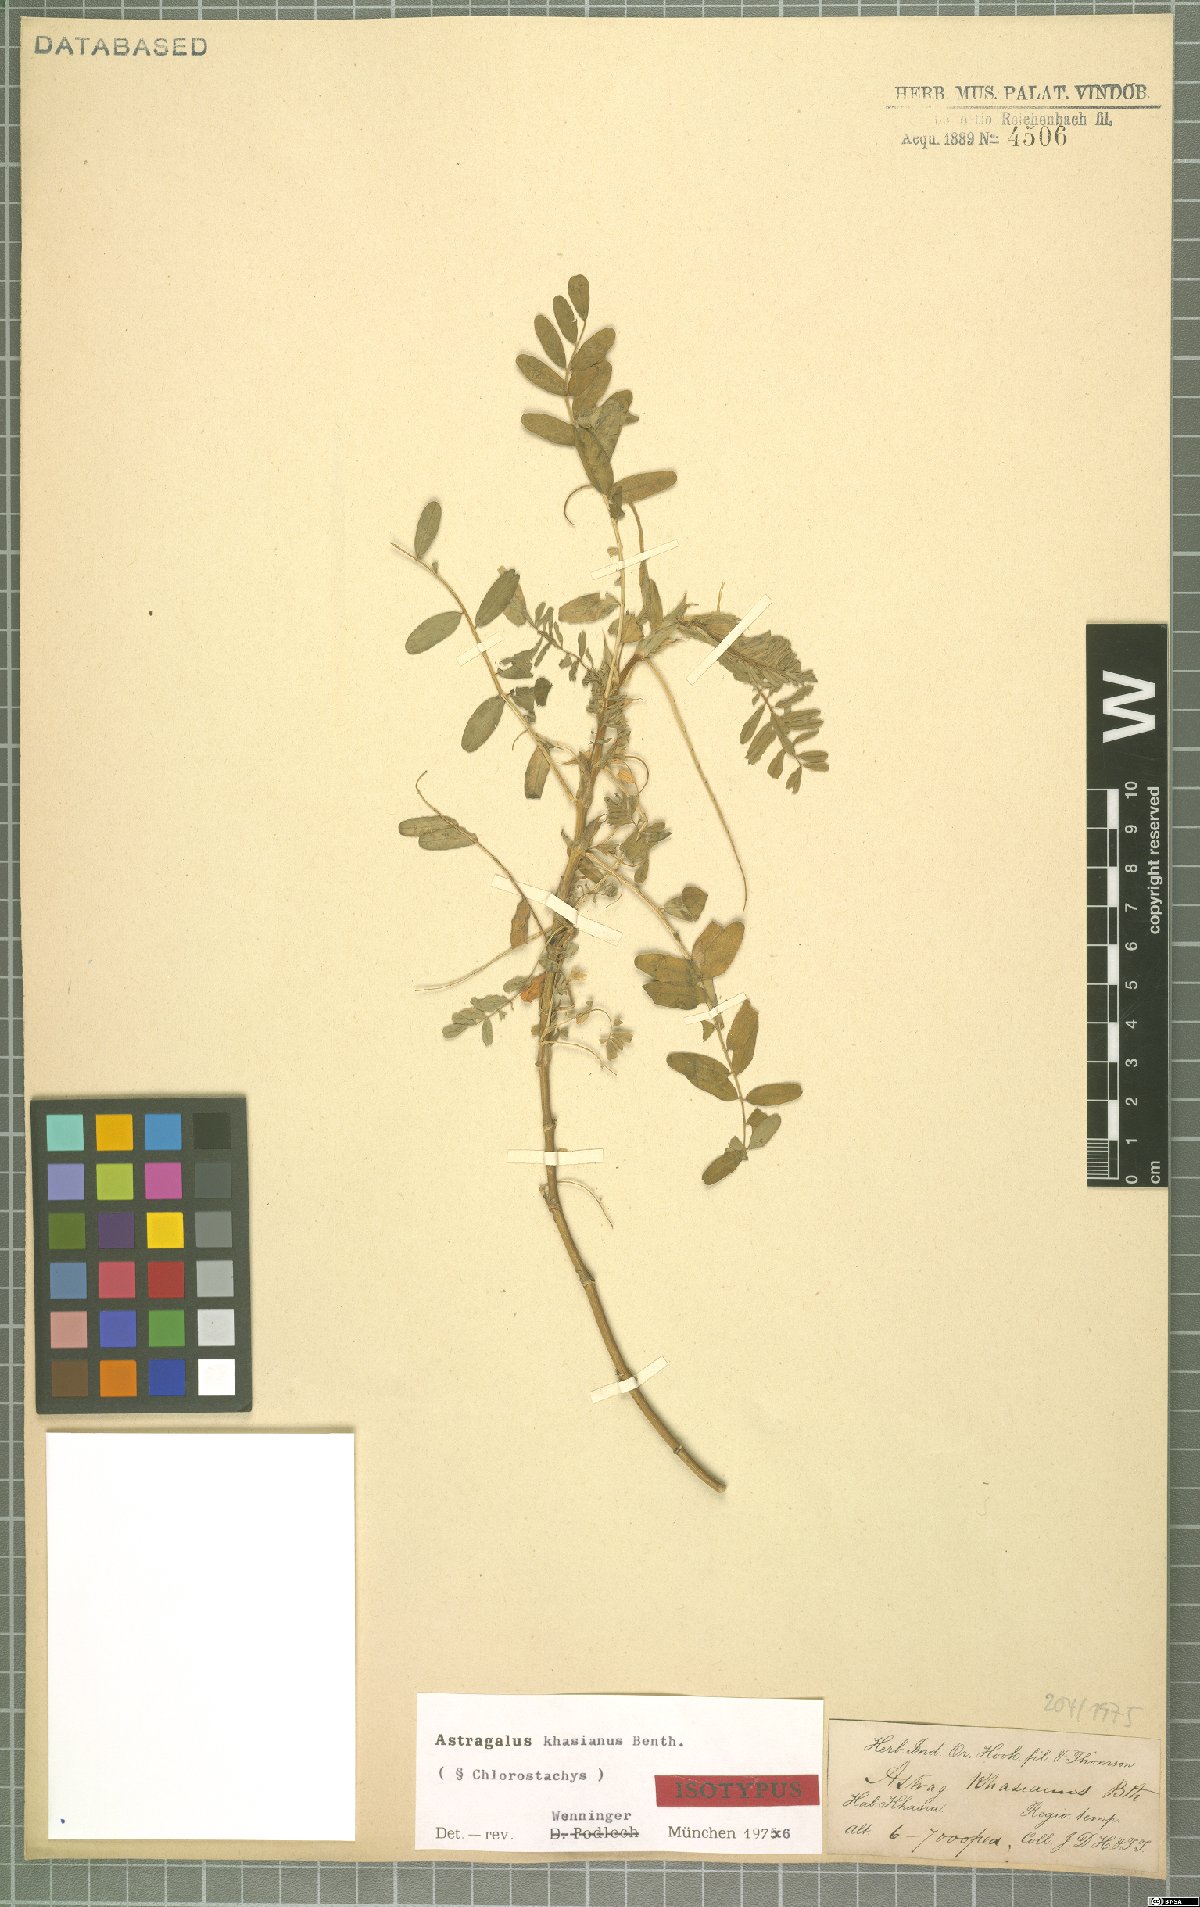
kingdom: Plantae
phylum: Tracheophyta
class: Magnoliopsida
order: Fabales
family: Fabaceae
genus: Astragalus
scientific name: Astragalus khasianus
